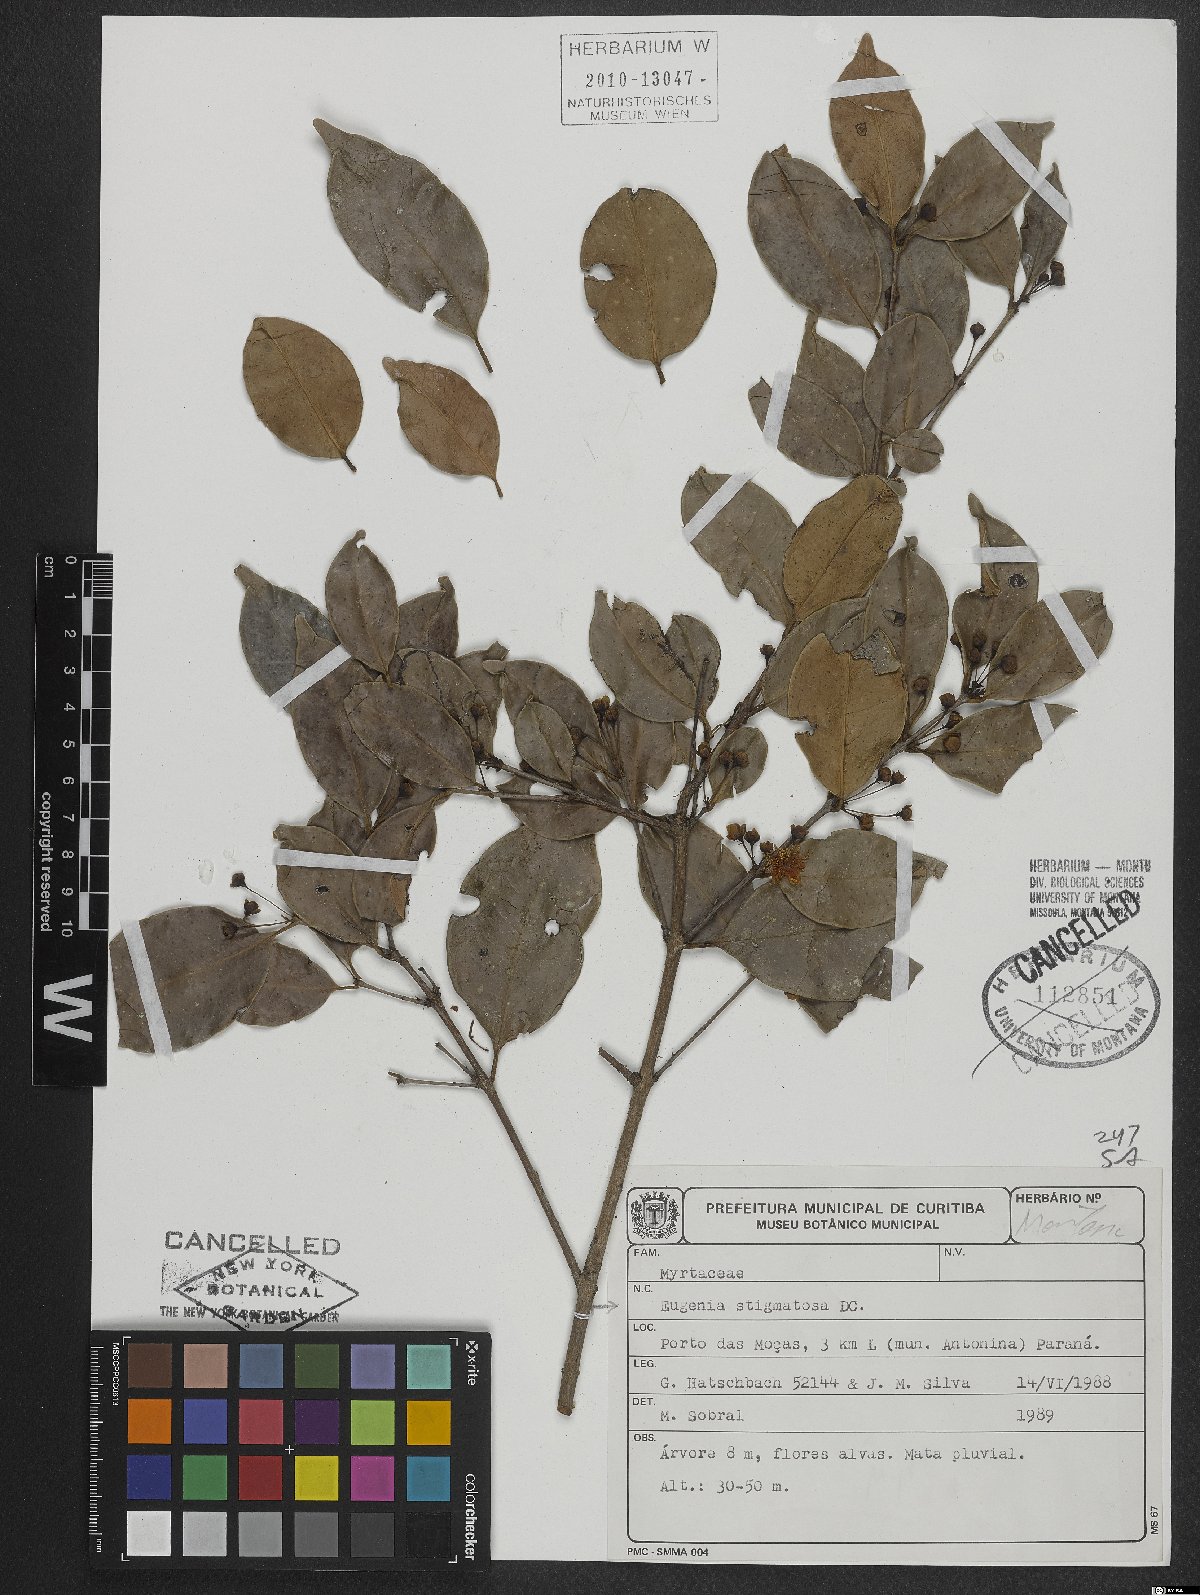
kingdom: Plantae
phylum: Tracheophyta
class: Magnoliopsida
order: Myrtales
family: Myrtaceae
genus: Eugenia
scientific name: Eugenia stigmatosa
